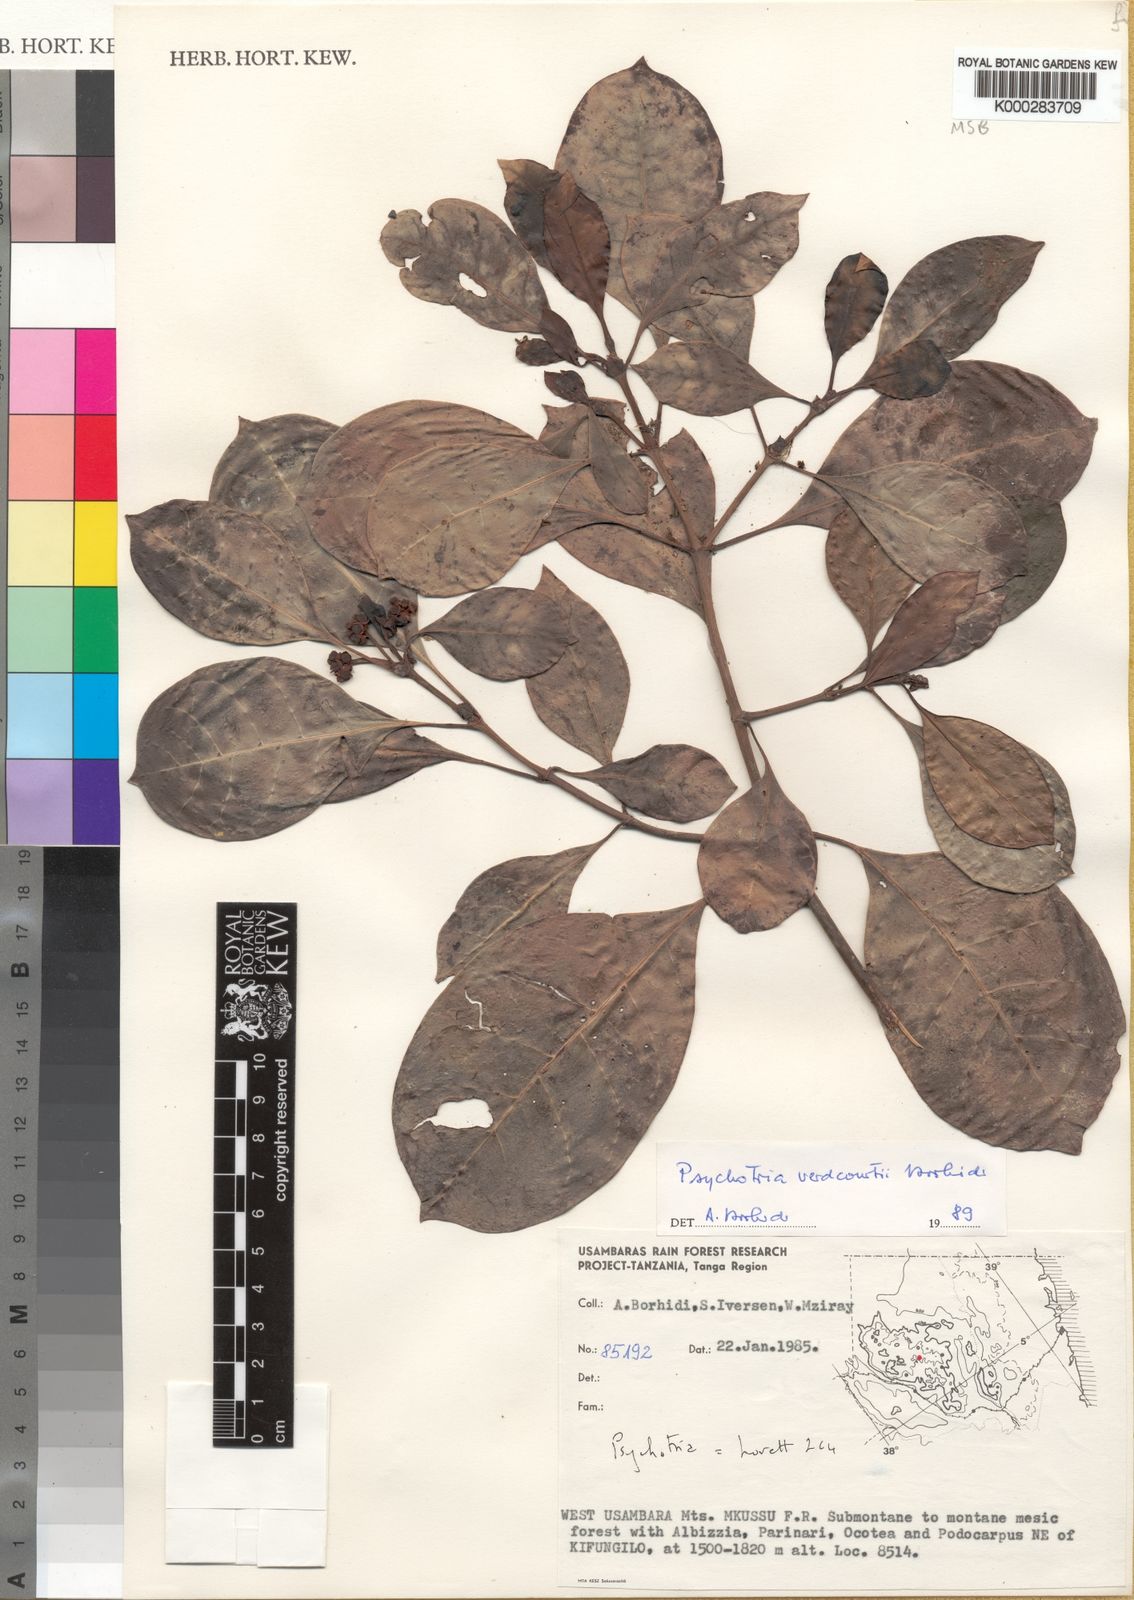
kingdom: Plantae
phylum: Tracheophyta
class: Magnoliopsida
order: Gentianales
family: Rubiaceae
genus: Psychotria
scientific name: Psychotria verdcourtii
